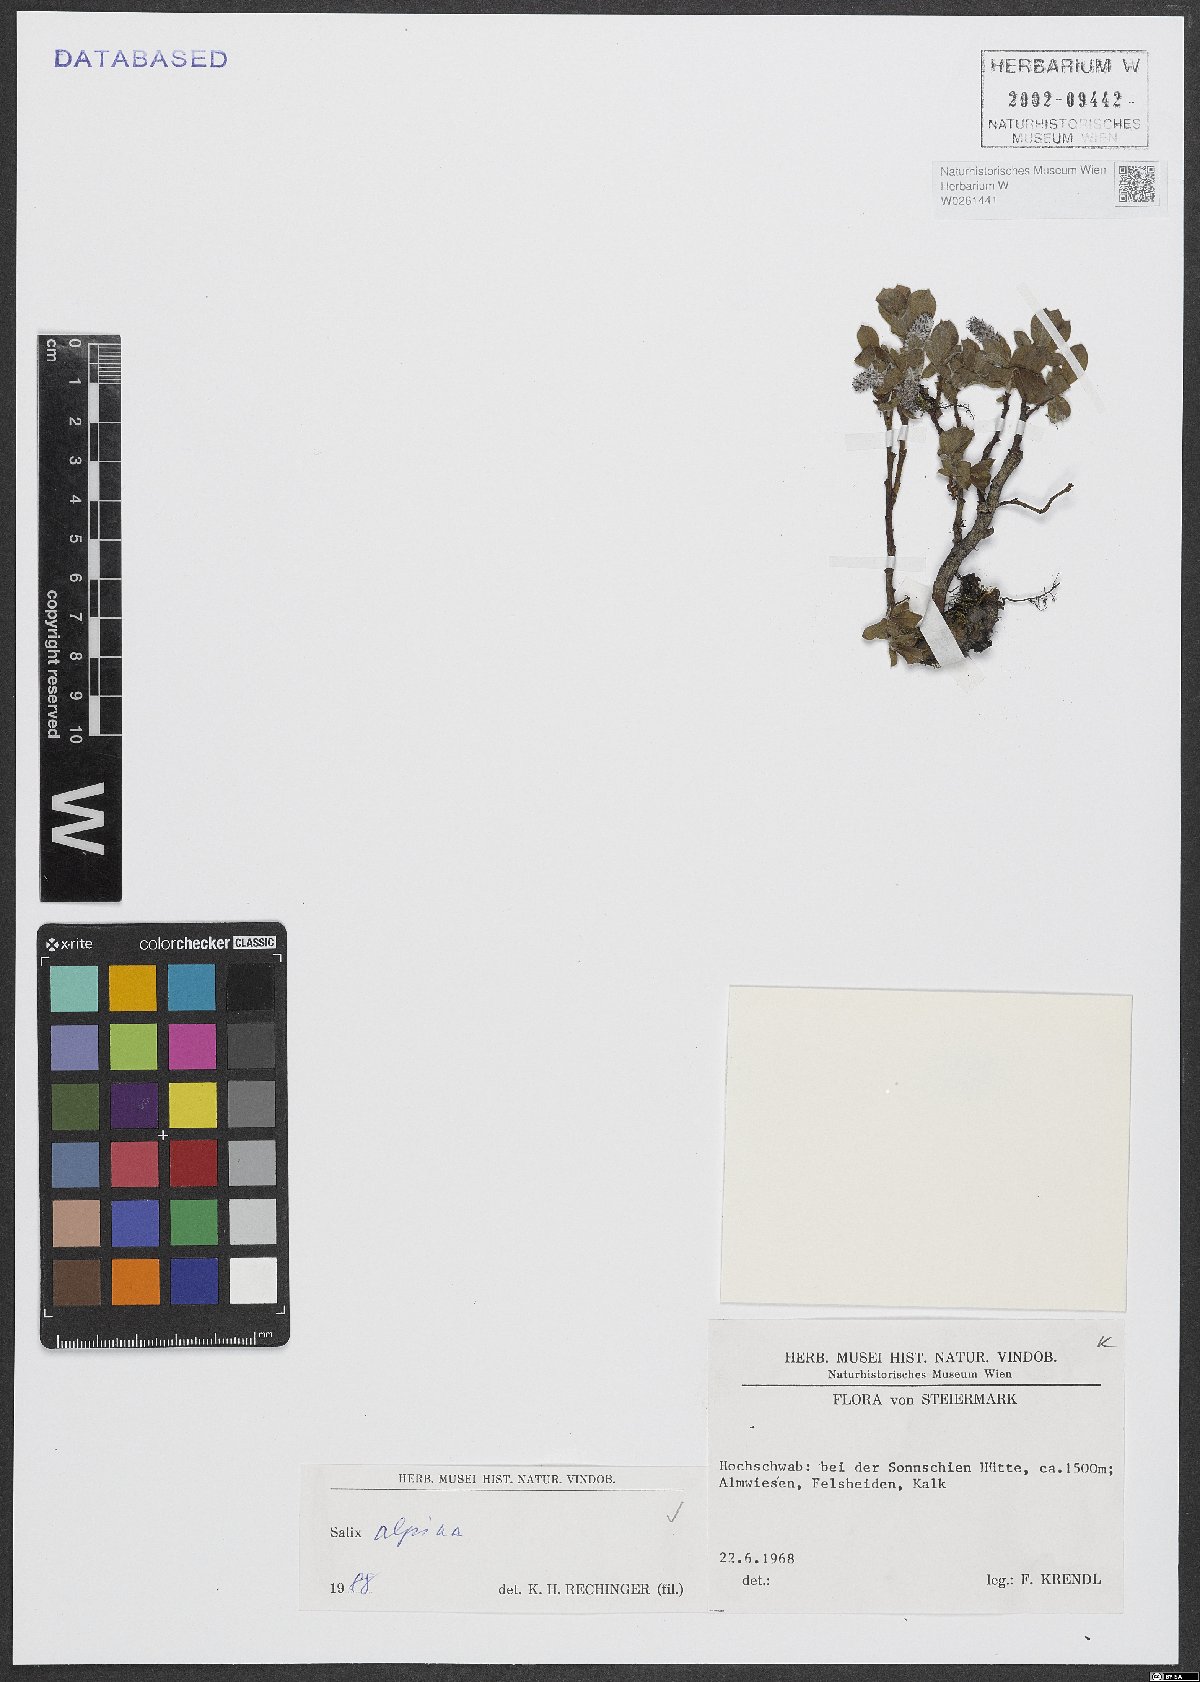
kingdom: Plantae
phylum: Tracheophyta
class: Magnoliopsida
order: Malpighiales
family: Salicaceae
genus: Salix
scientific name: Salix alpina
